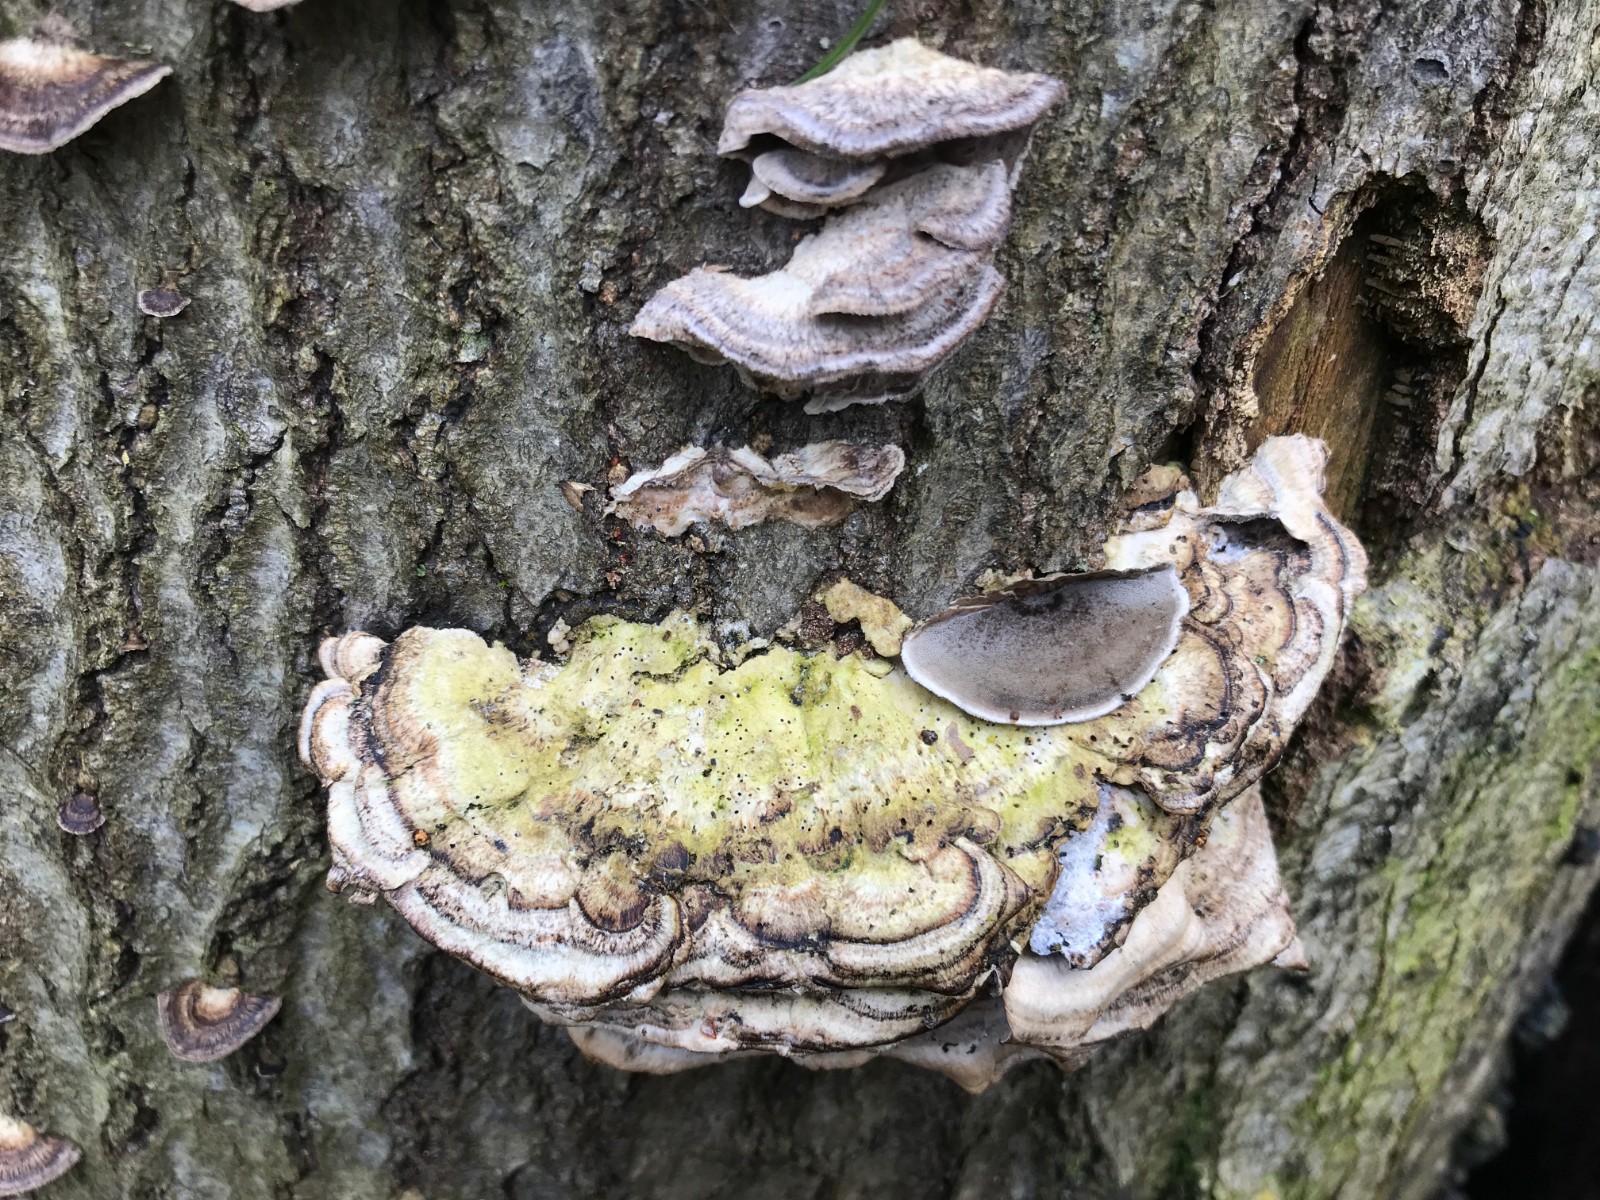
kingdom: Fungi
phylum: Basidiomycota
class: Agaricomycetes
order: Polyporales
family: Phanerochaetaceae
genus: Bjerkandera
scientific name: Bjerkandera adusta
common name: sveden sodporesvamp
